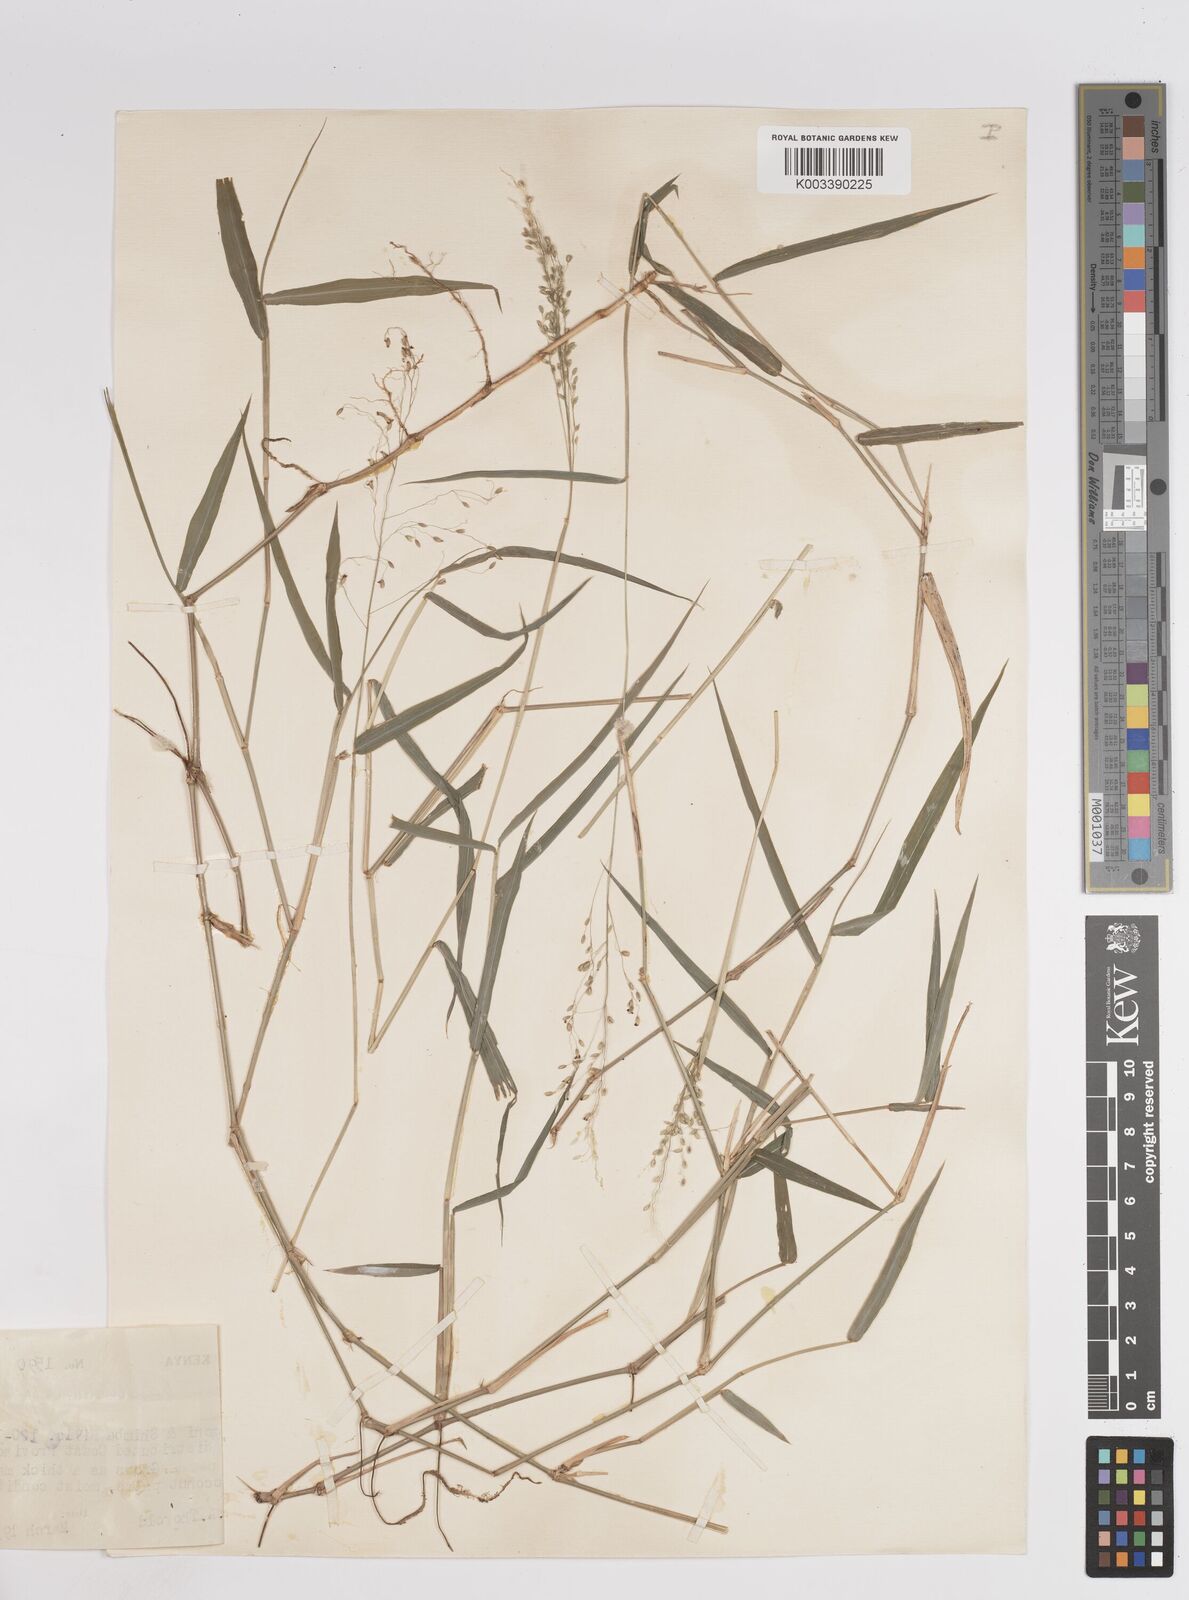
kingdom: Plantae
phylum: Tracheophyta
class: Liliopsida
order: Poales
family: Poaceae
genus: Panicum
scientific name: Panicum trichocladum
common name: Donkey grass
